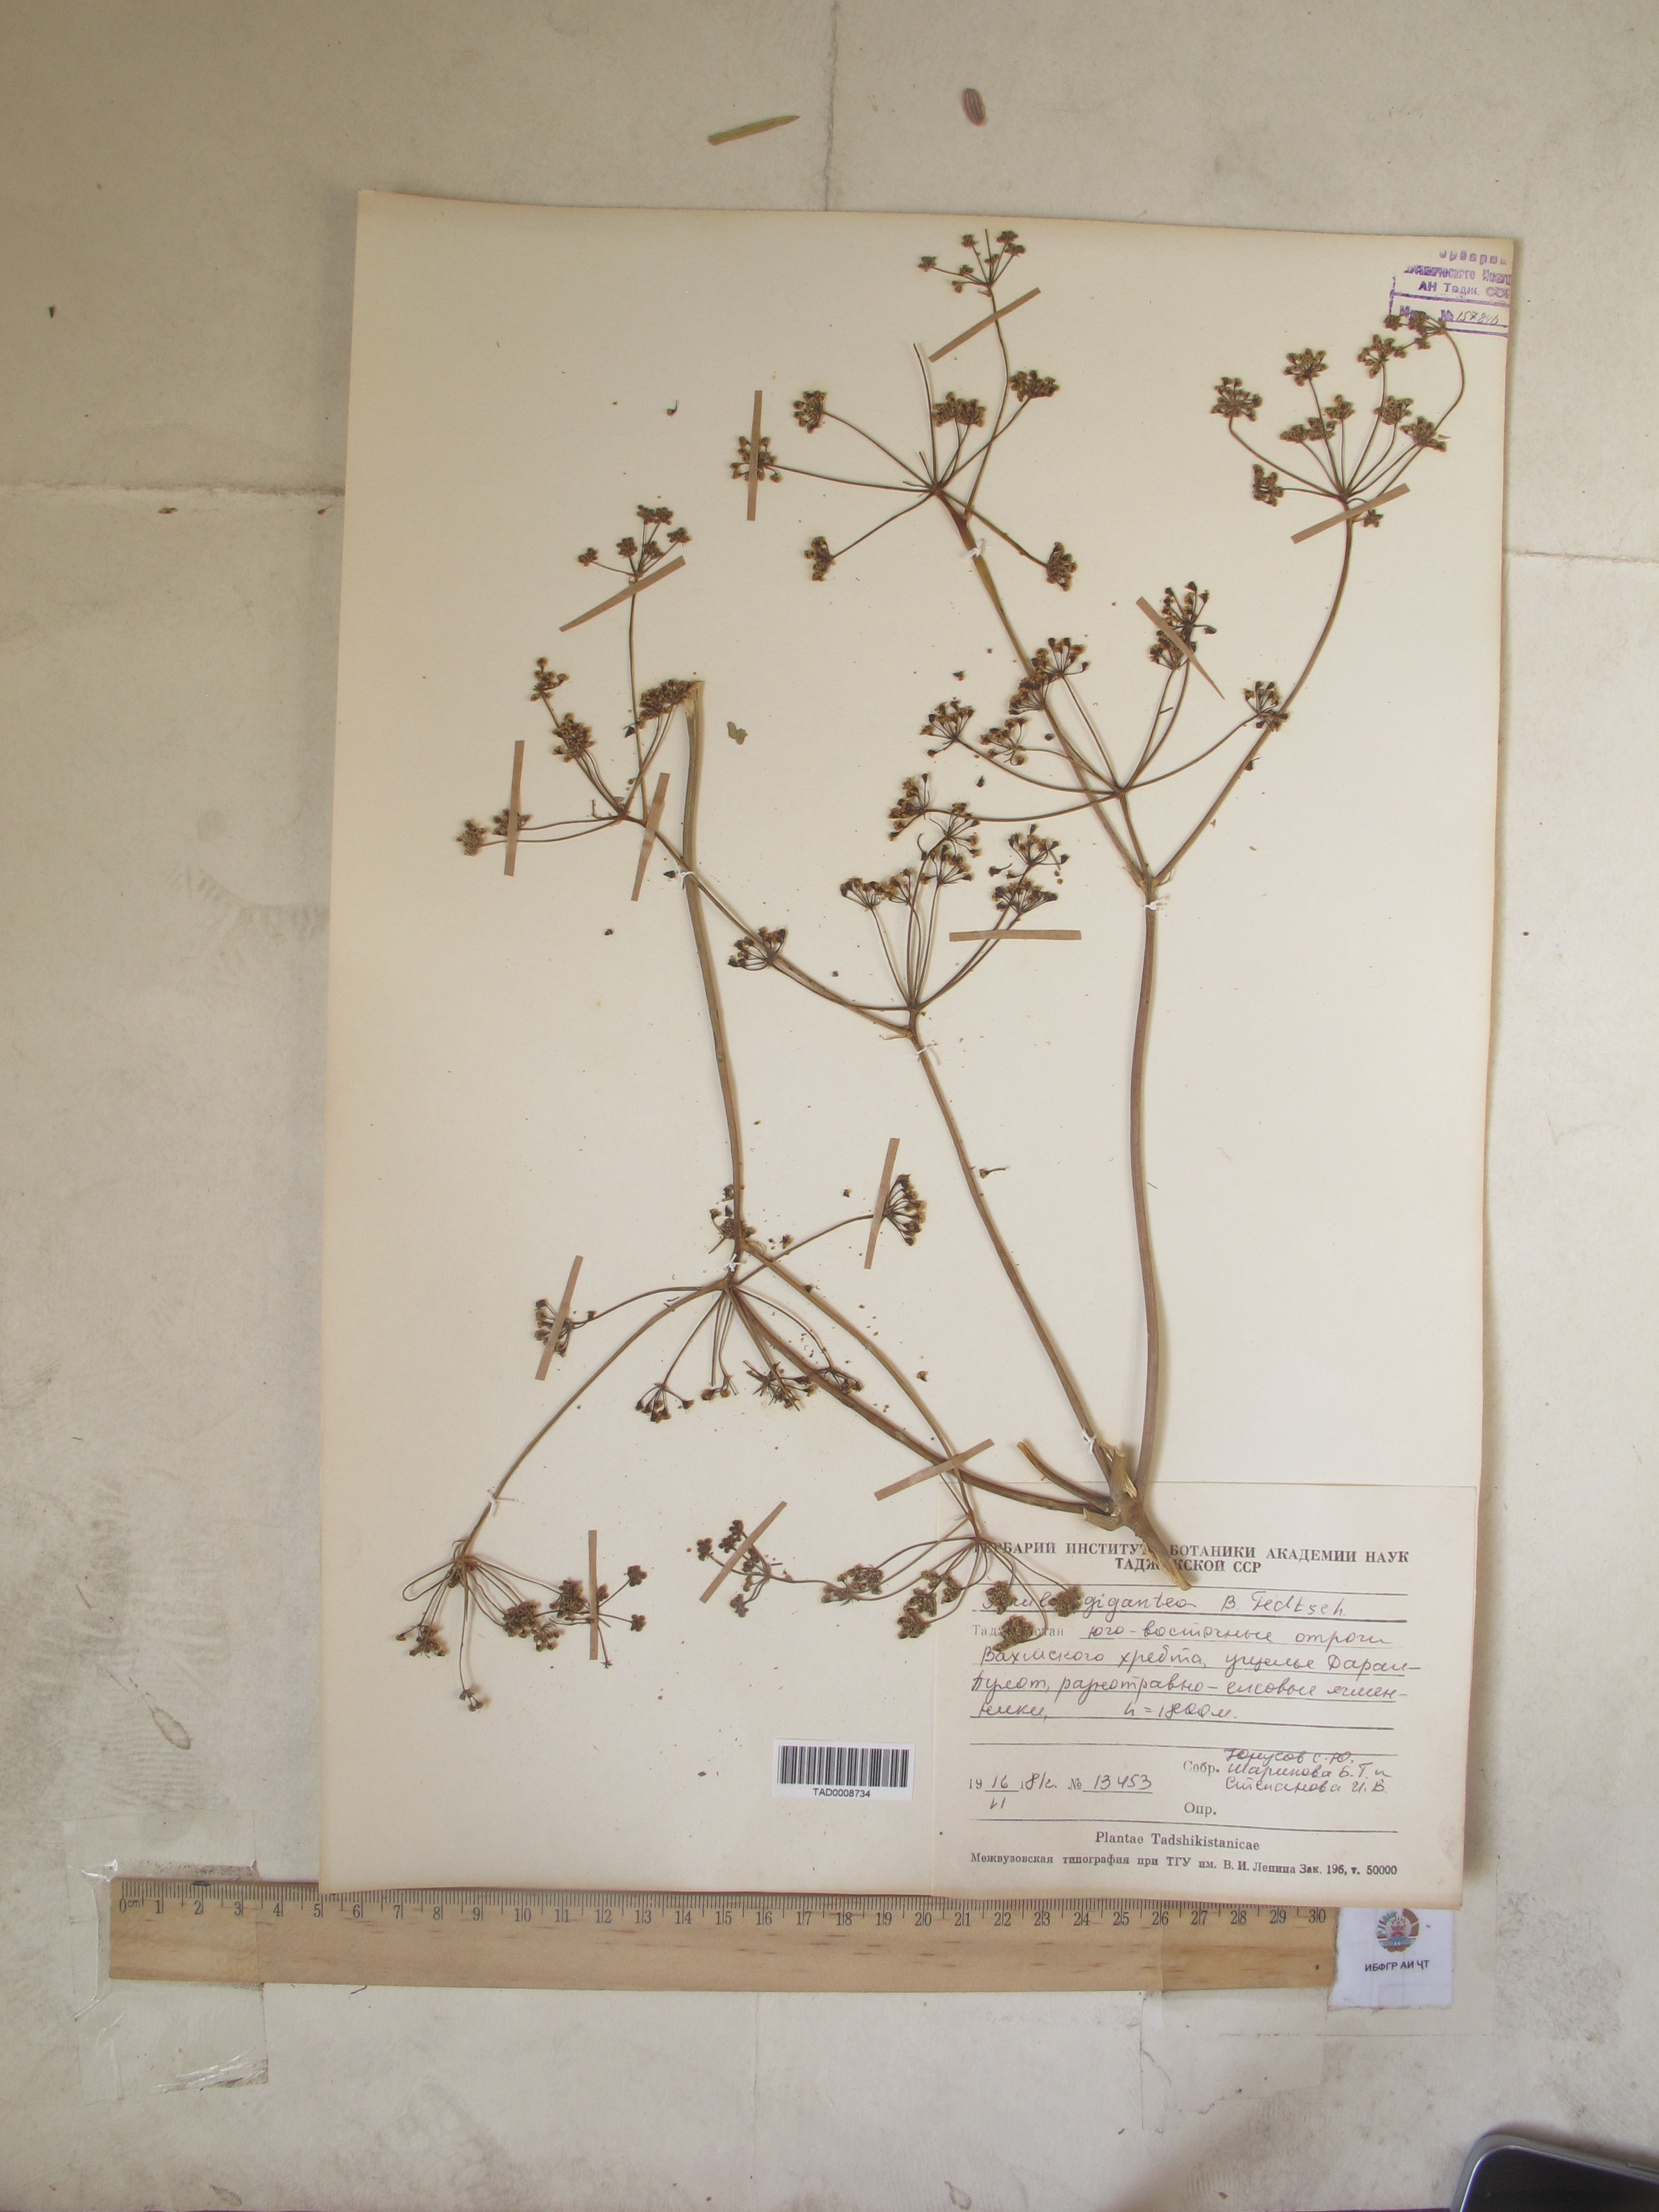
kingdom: Plantae
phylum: Tracheophyta
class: Magnoliopsida
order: Apiales
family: Apiaceae
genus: Ferula
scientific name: Ferula gigantea
